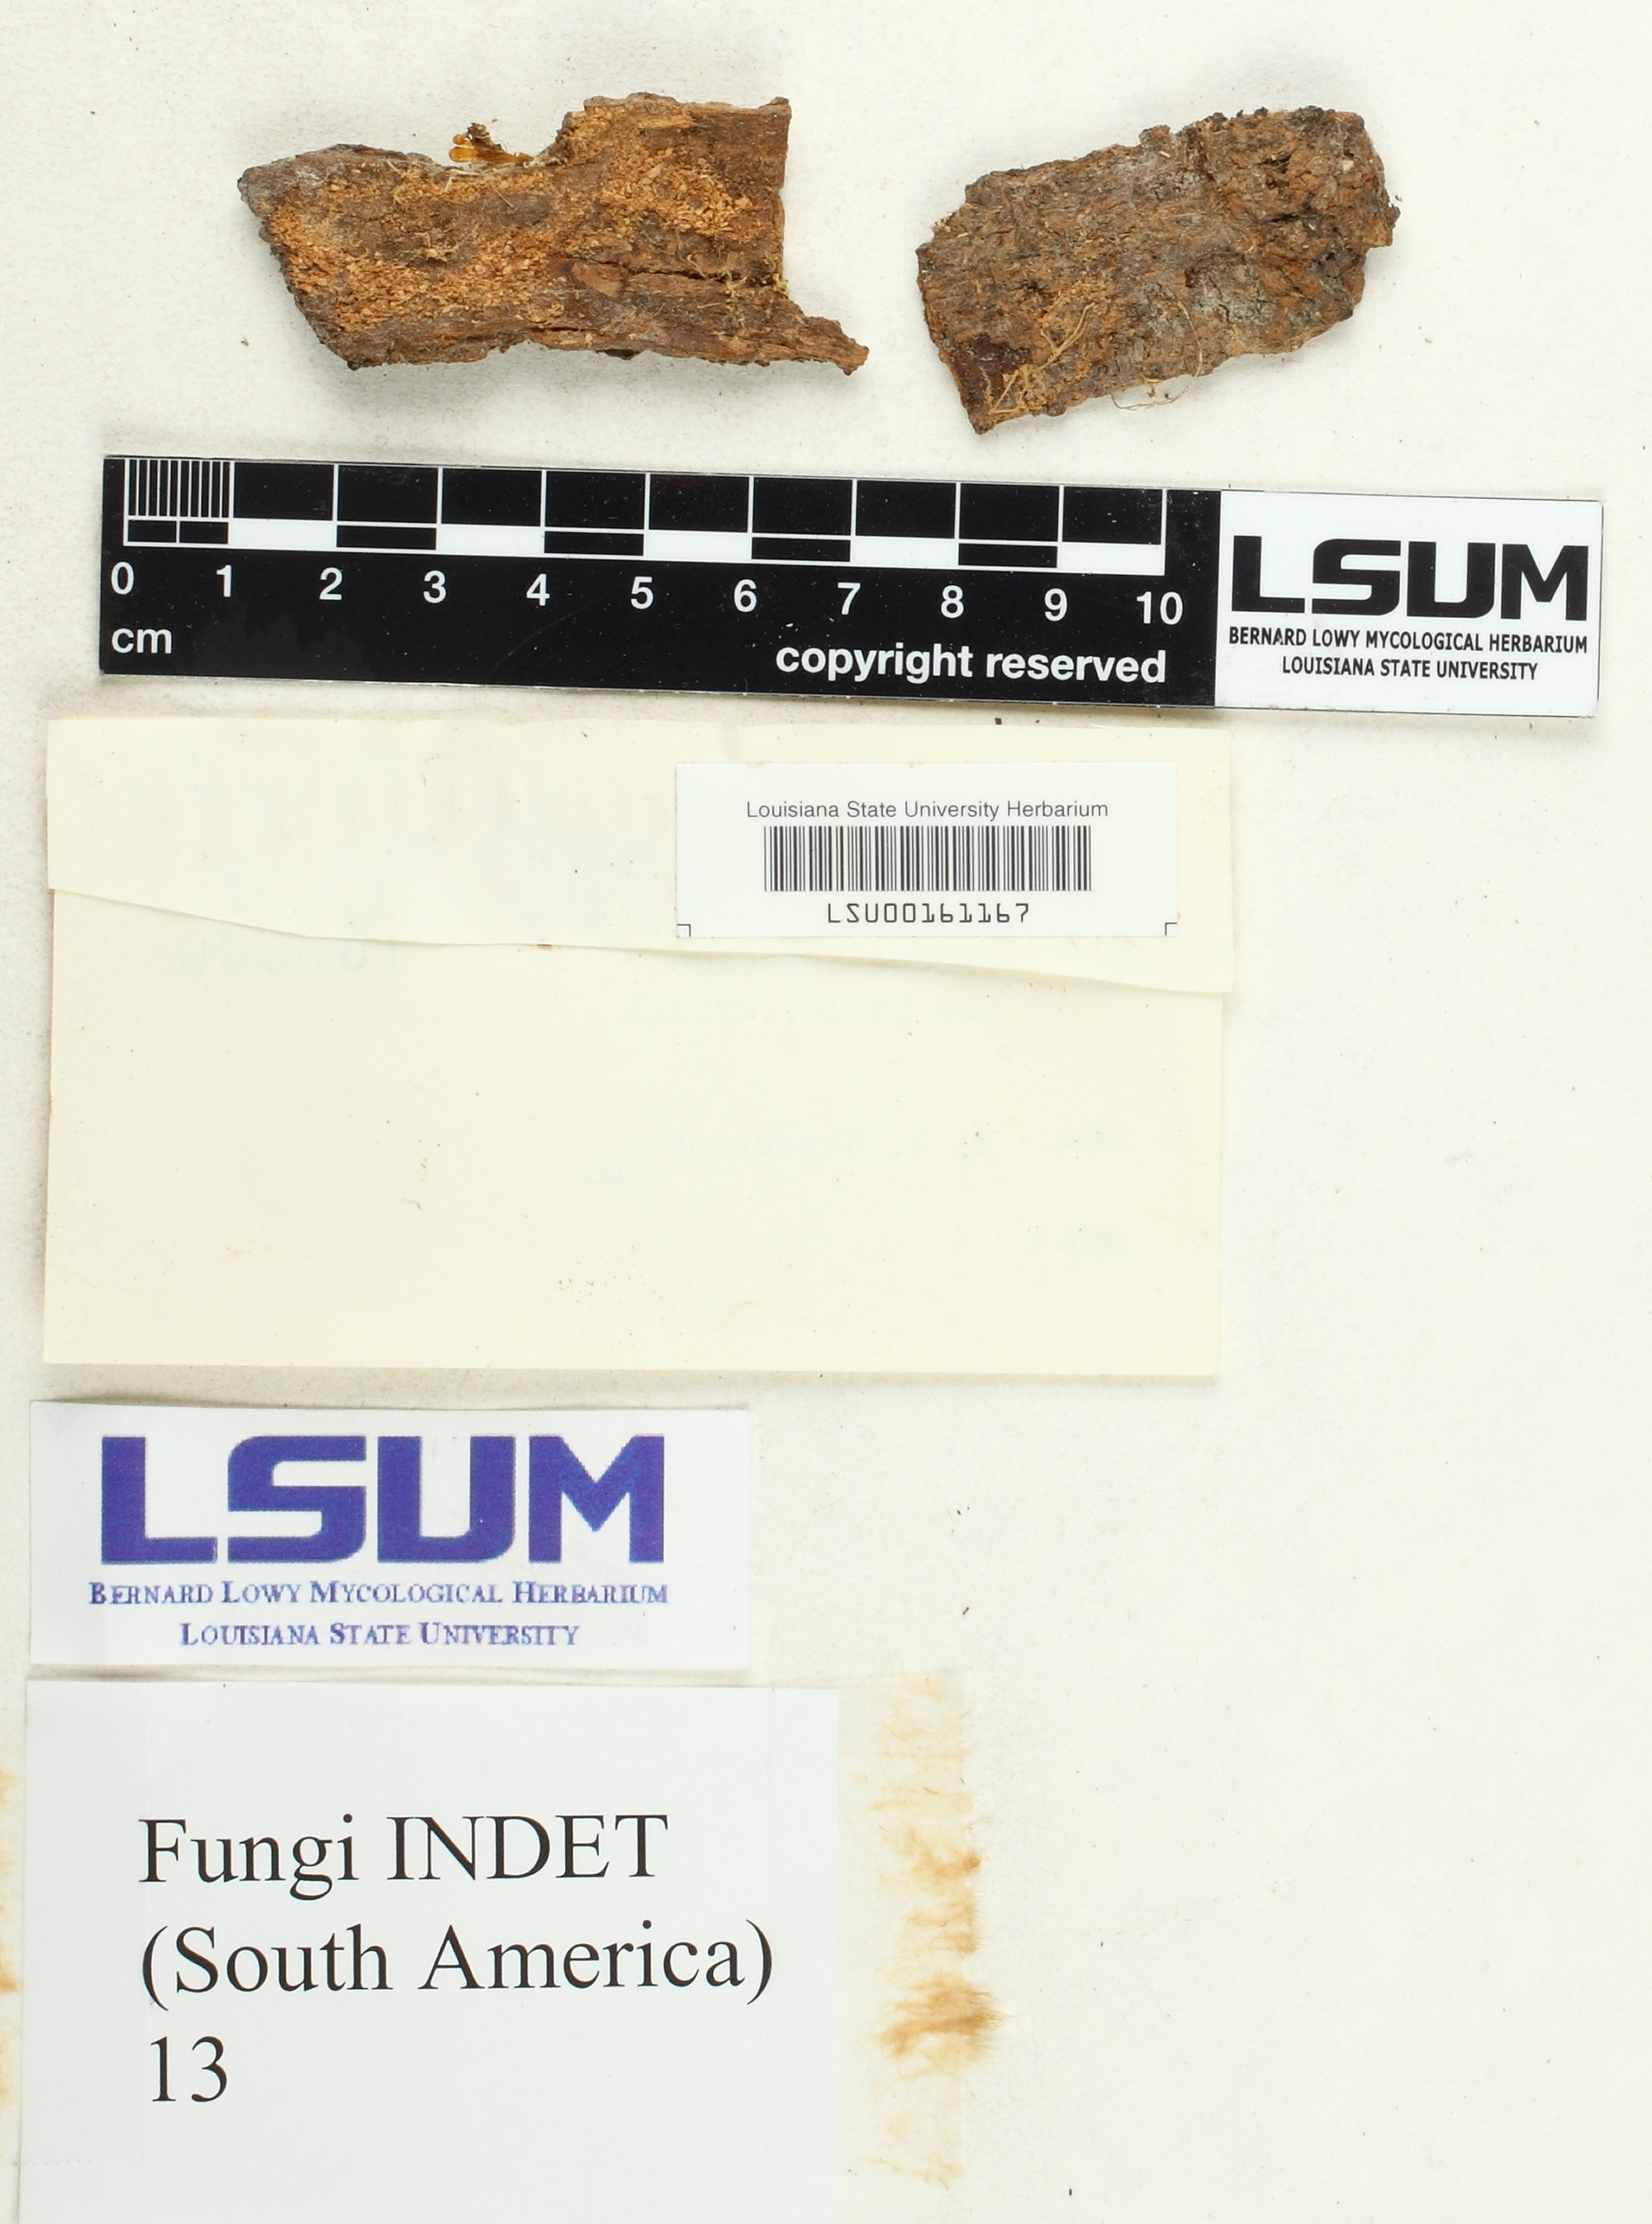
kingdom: Fungi
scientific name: Fungi
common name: Fungi
